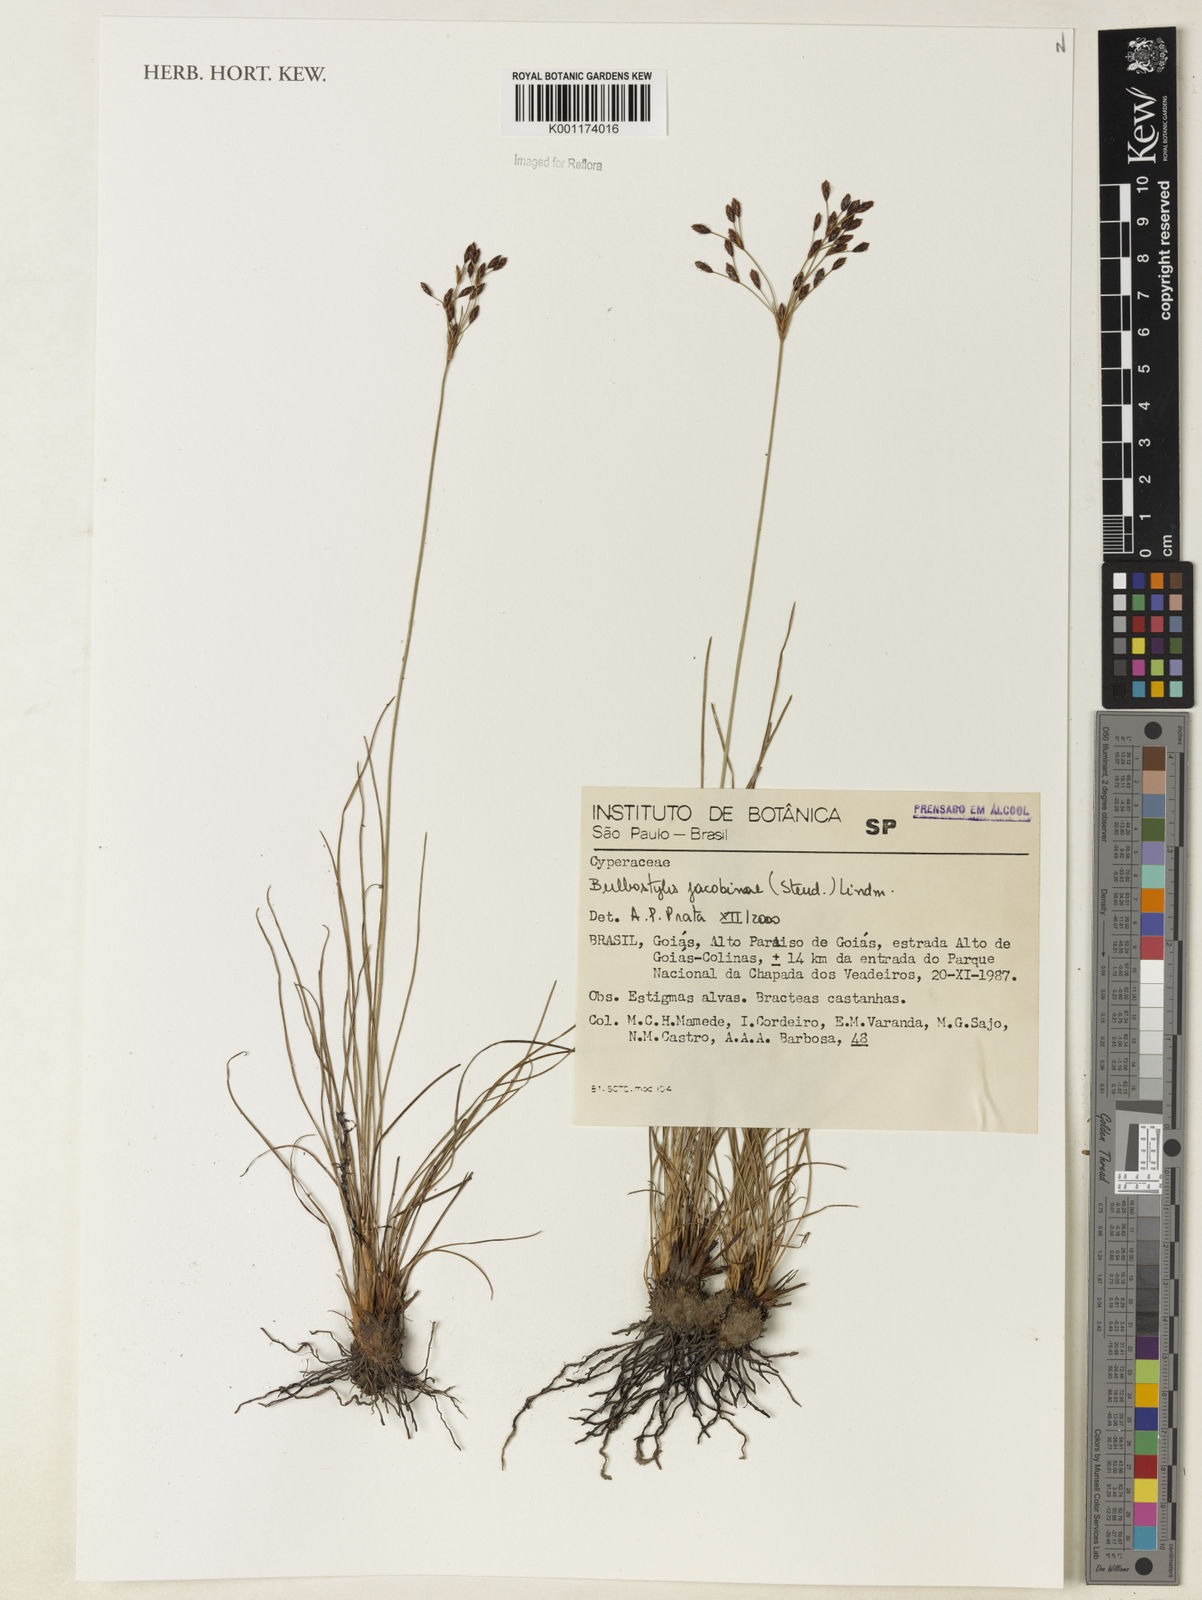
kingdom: Plantae
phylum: Tracheophyta
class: Liliopsida
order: Poales
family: Cyperaceae
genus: Bulbostylis
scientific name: Bulbostylis jacobinae
